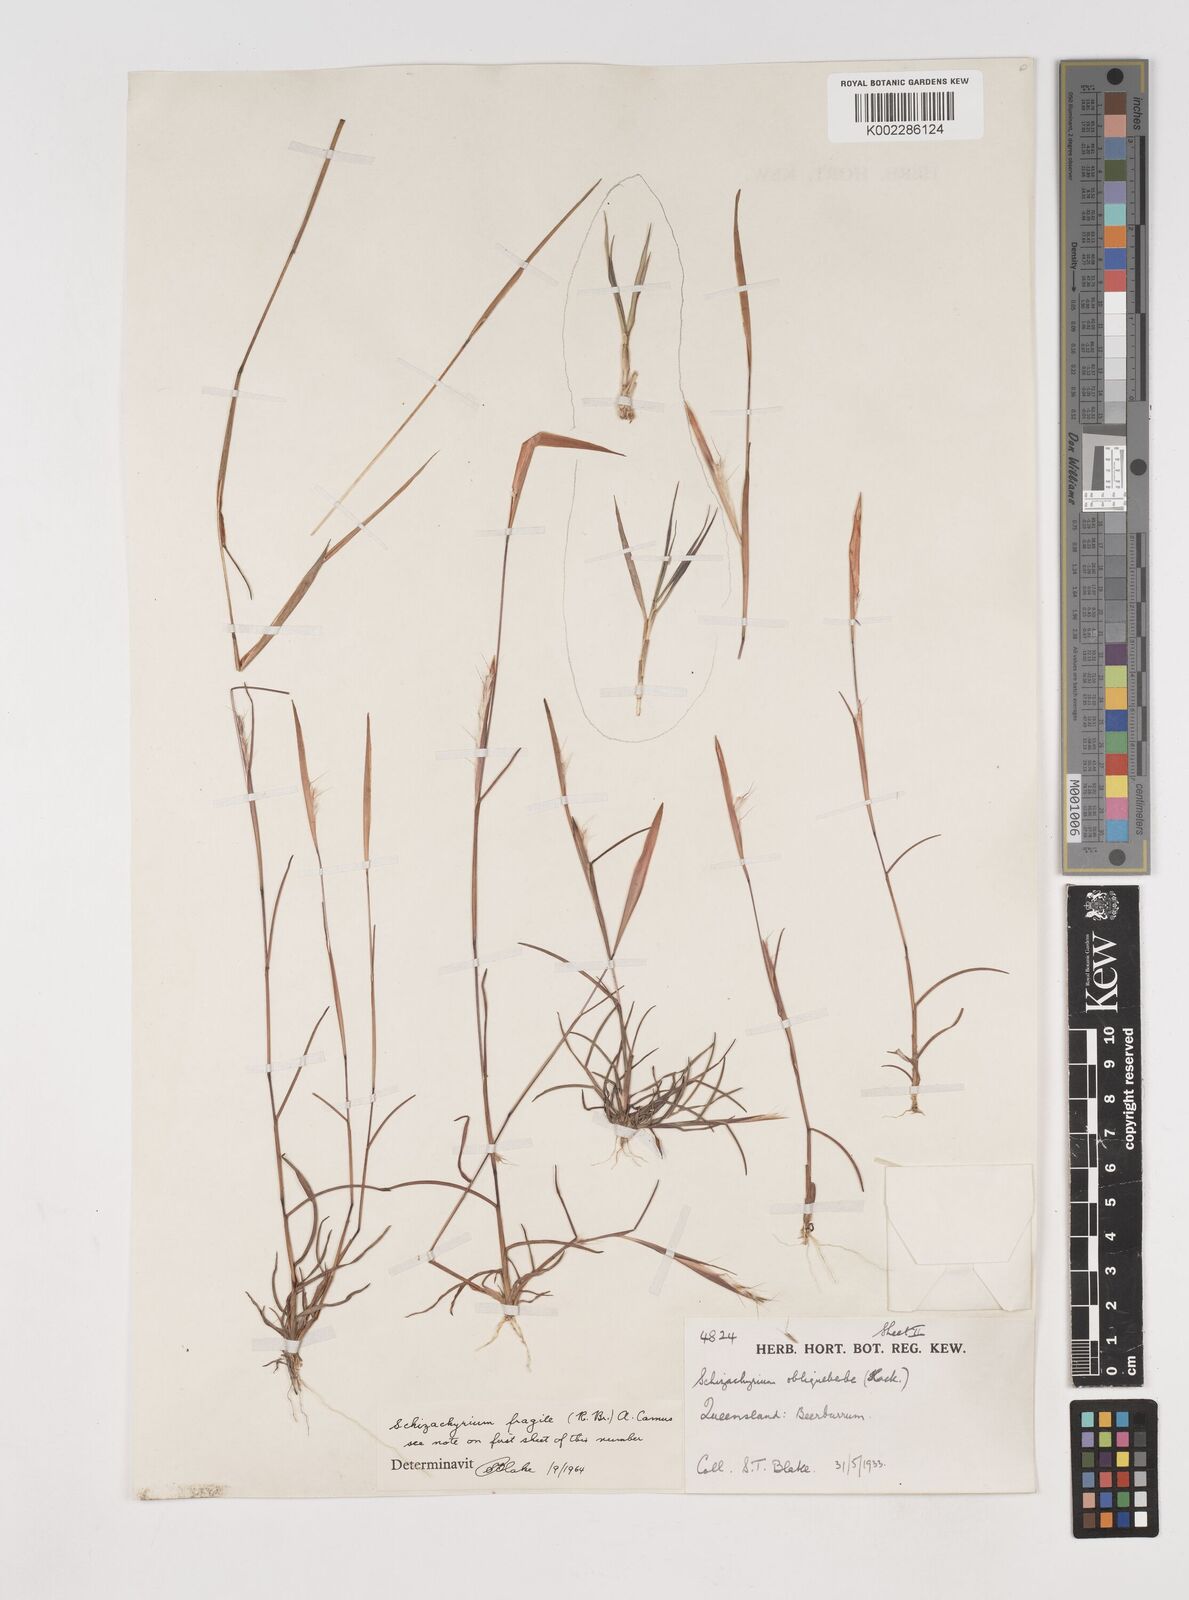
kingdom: Plantae
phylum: Tracheophyta
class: Liliopsida
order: Poales
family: Poaceae
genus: Schizachyrium
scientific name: Schizachyrium fragile
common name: Red spathe grass
